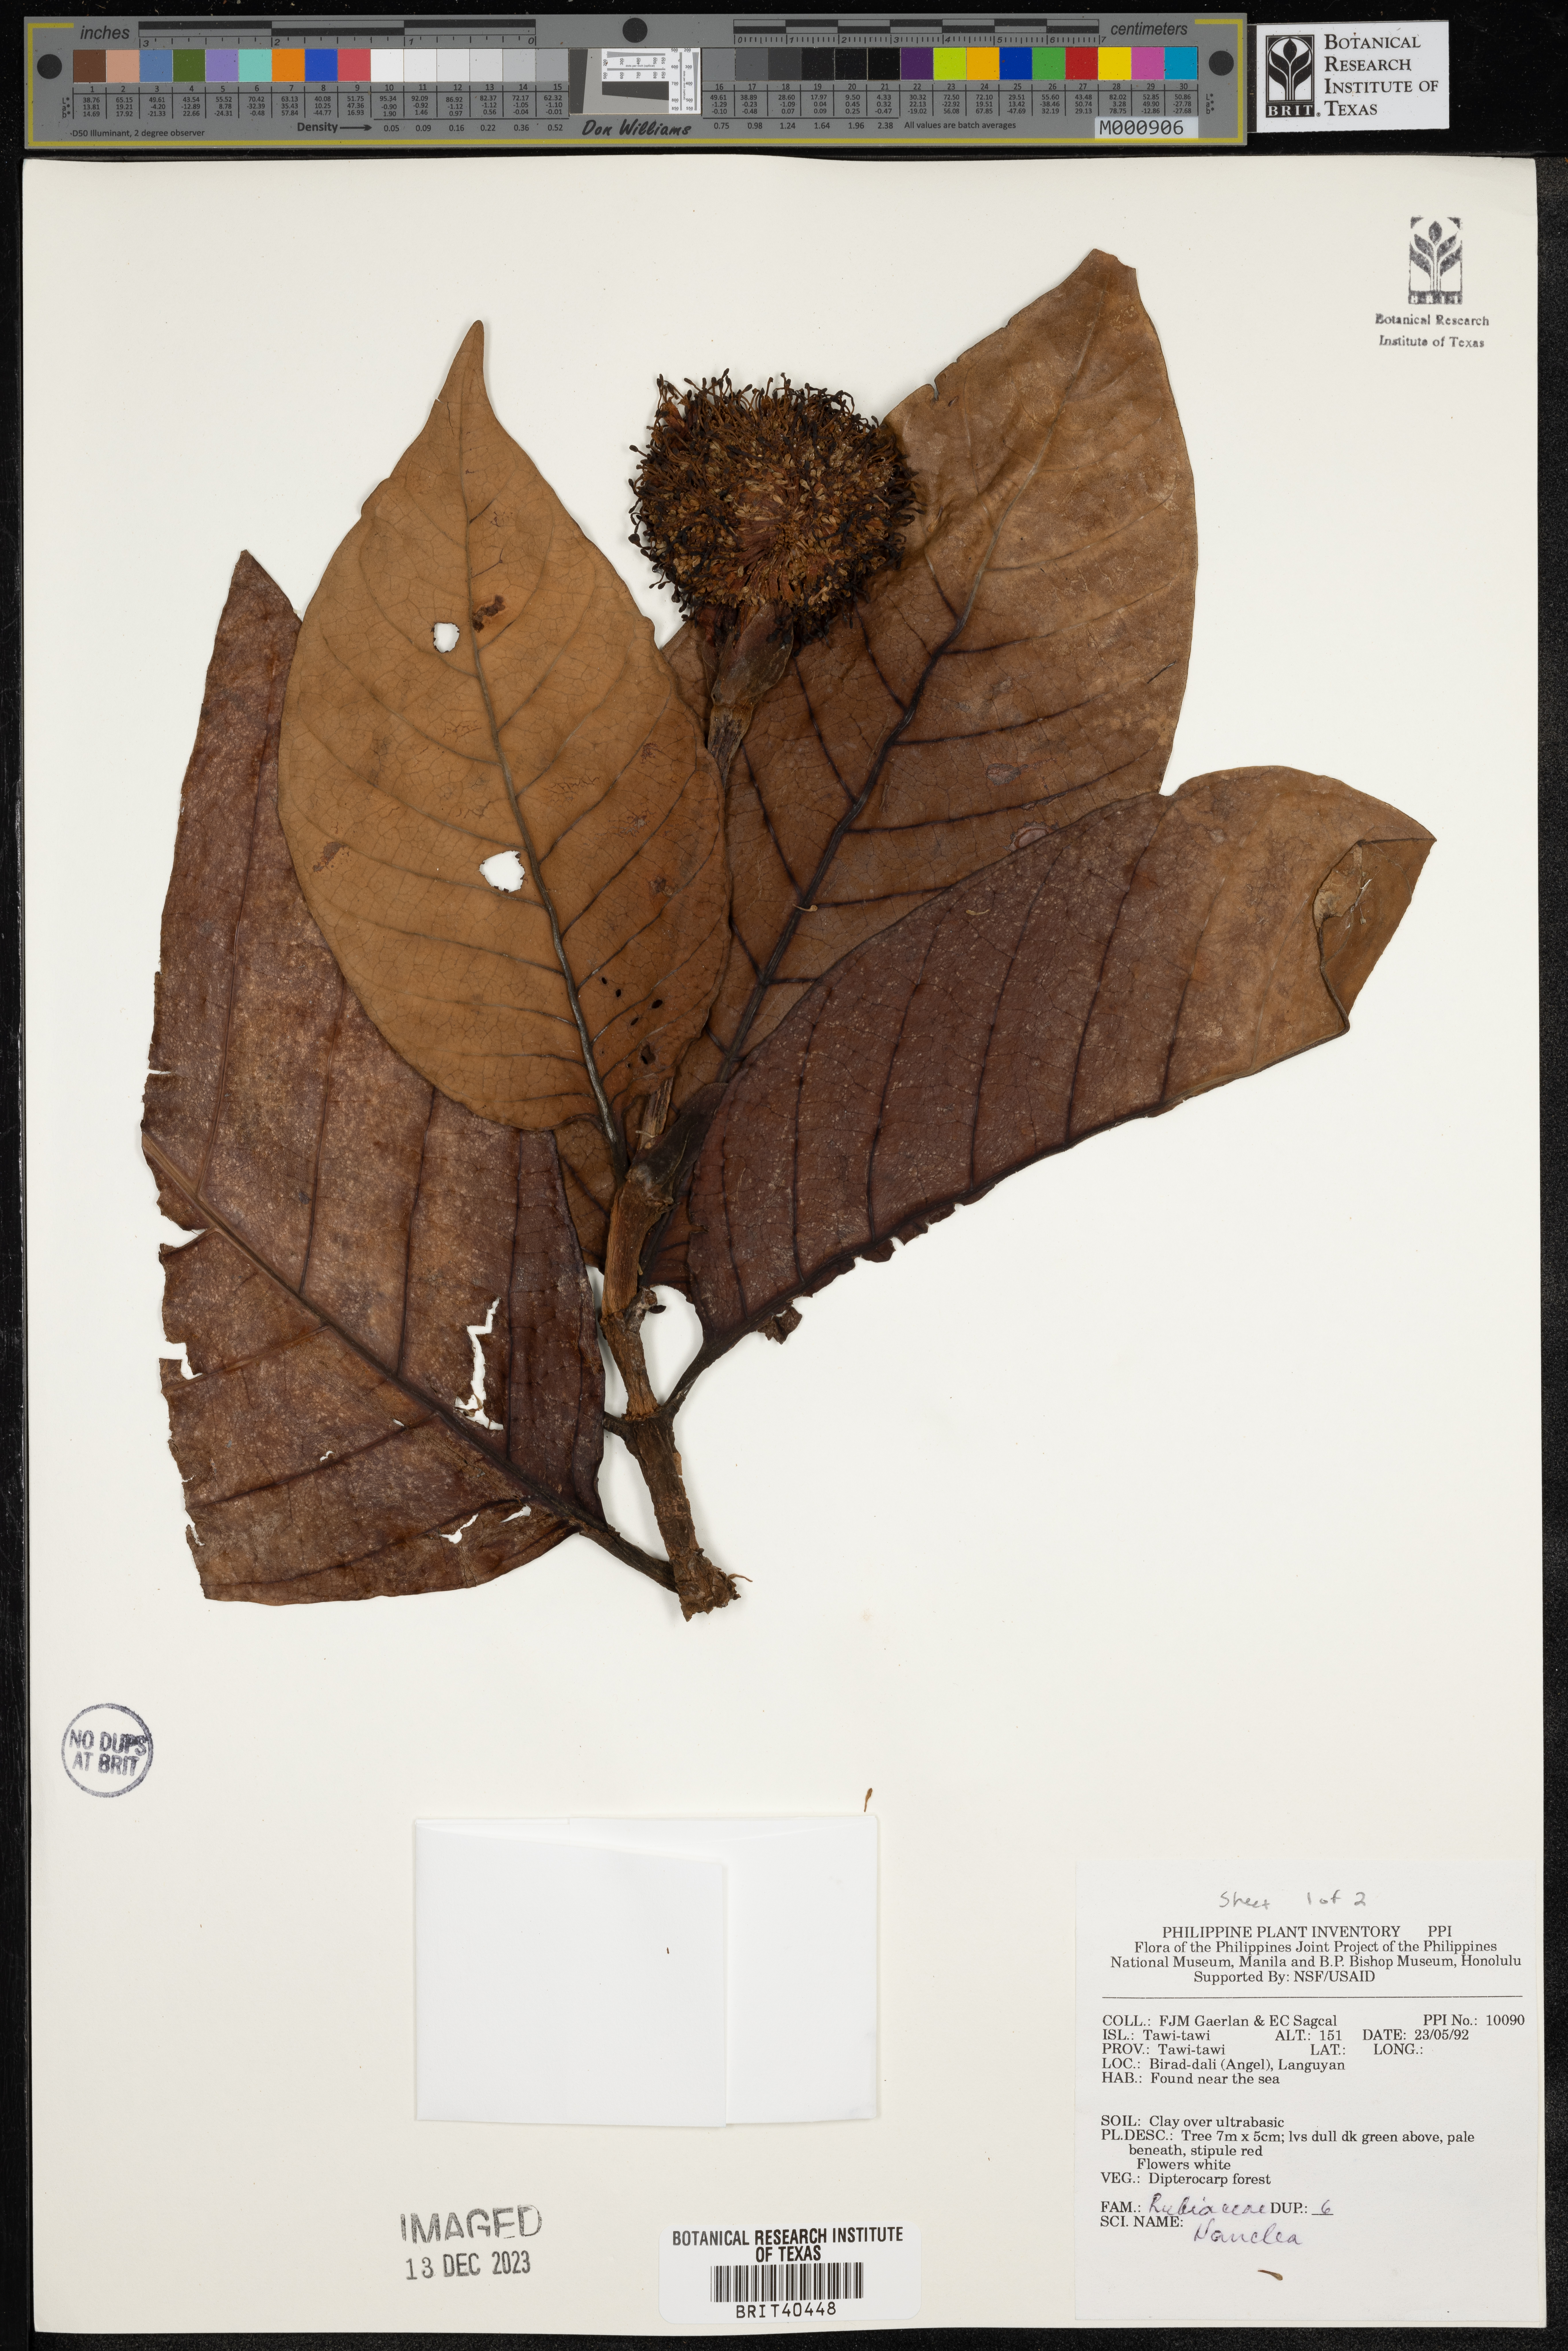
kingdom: Plantae
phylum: Tracheophyta
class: Magnoliopsida
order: Gentianales
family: Rubiaceae
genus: Nauclea
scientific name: Nauclea
